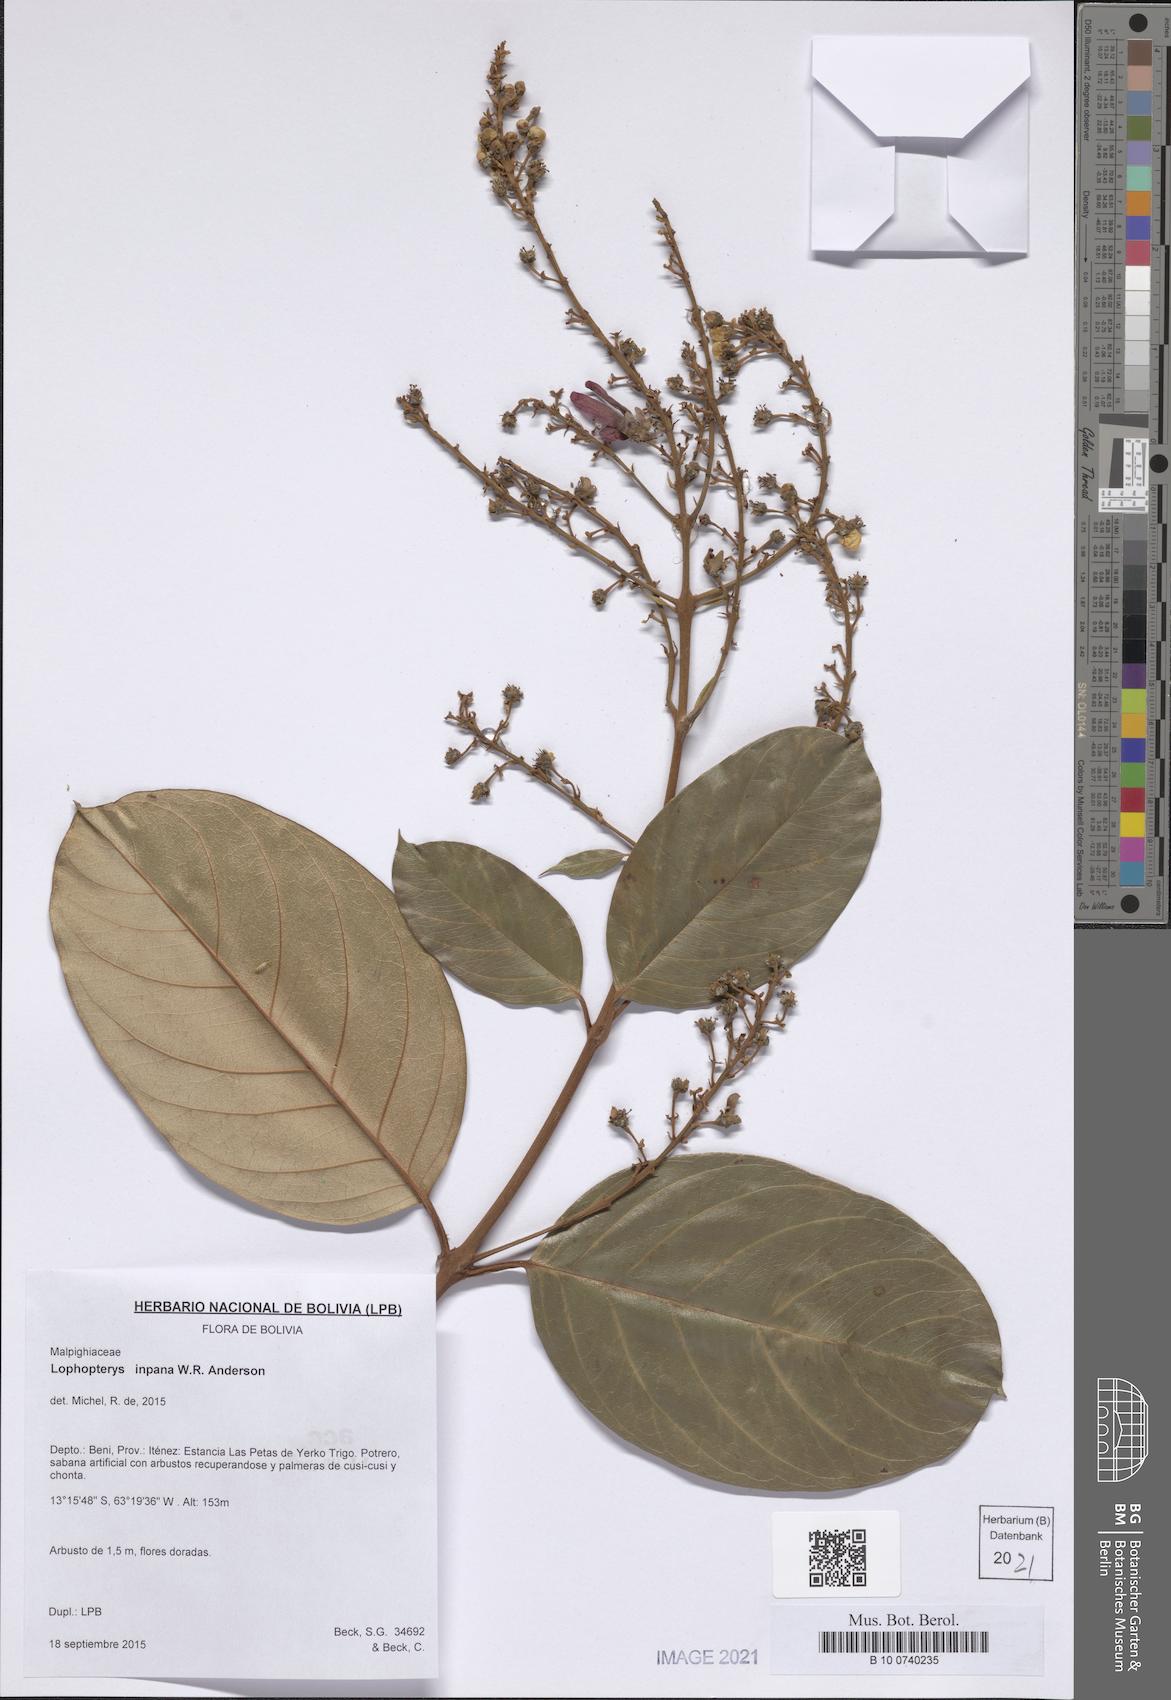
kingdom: Plantae
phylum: Tracheophyta
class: Magnoliopsida
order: Malpighiales
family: Malpighiaceae
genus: Lophopterys
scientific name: Lophopterys inpana
